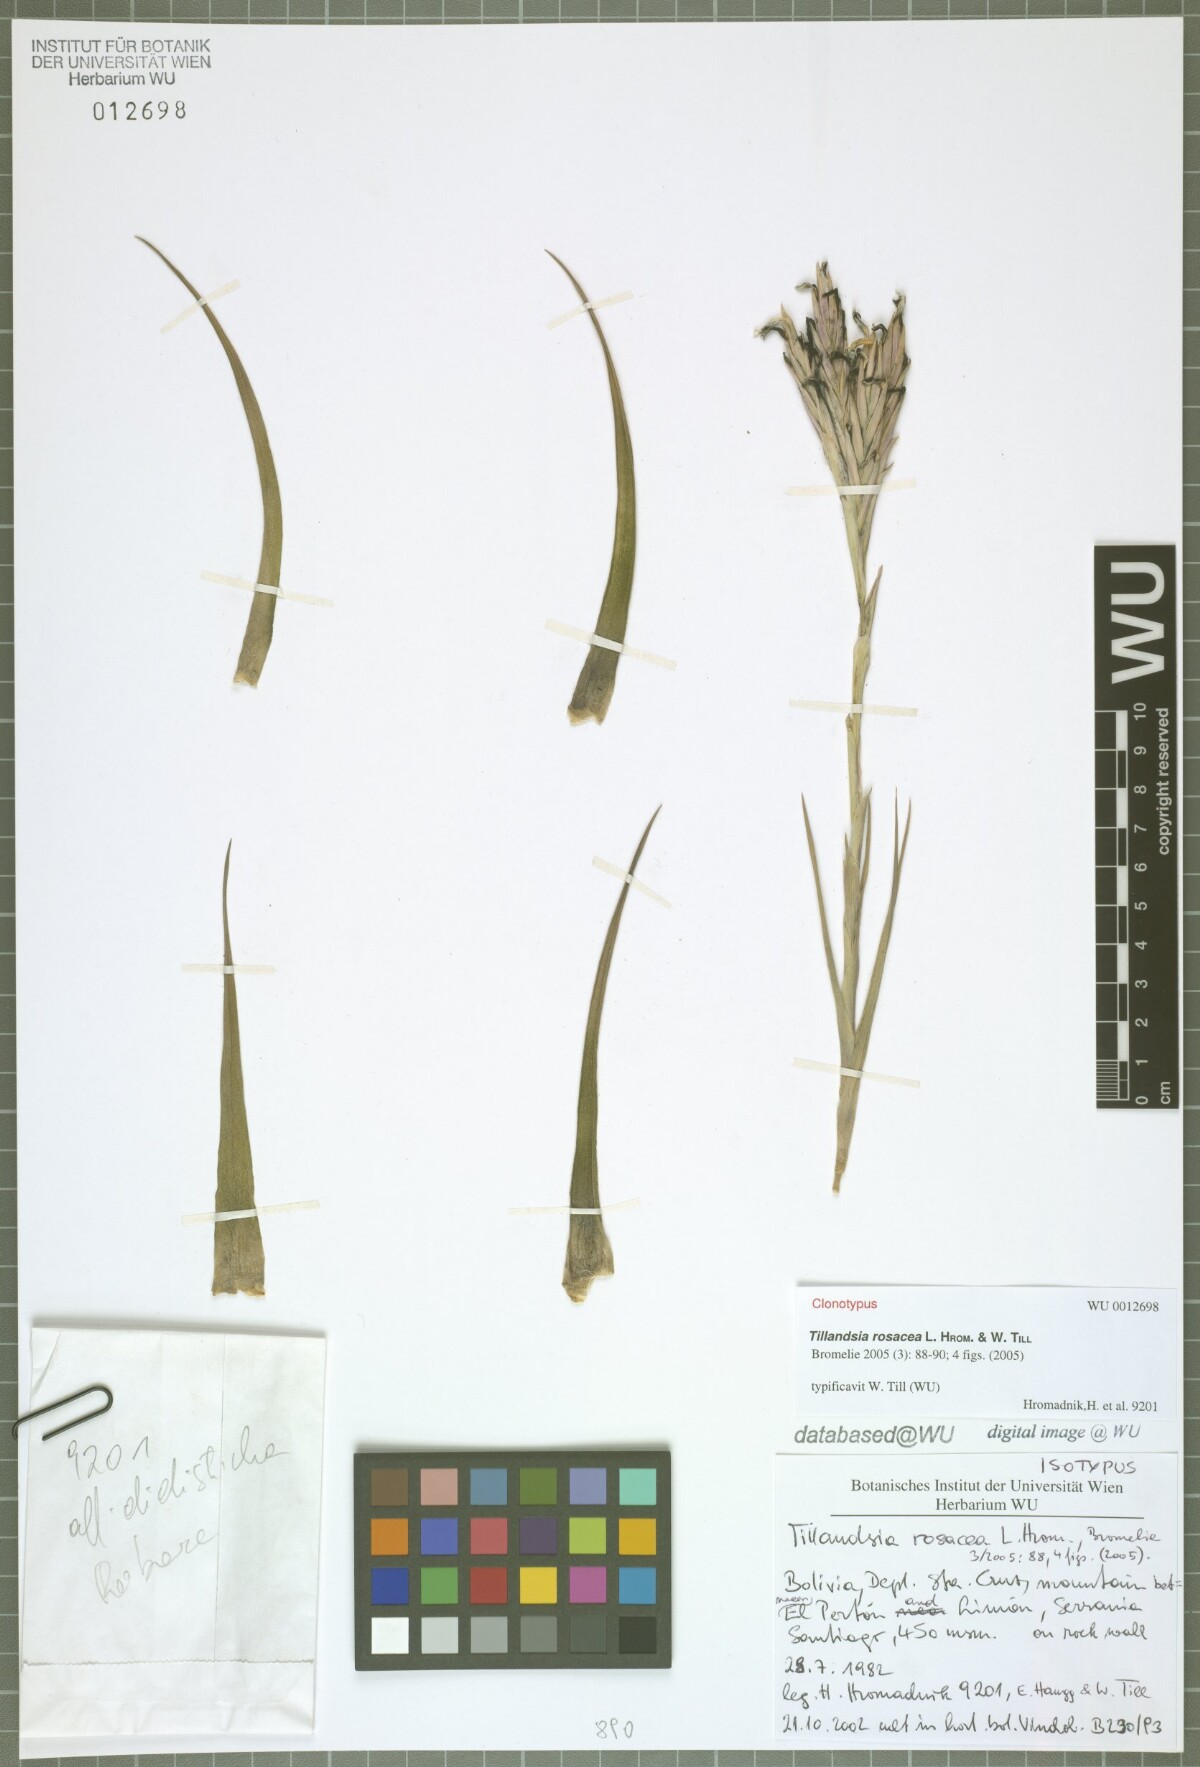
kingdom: Plantae
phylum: Tracheophyta
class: Liliopsida
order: Poales
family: Bromeliaceae
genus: Tillandsia
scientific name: Tillandsia rosacea
